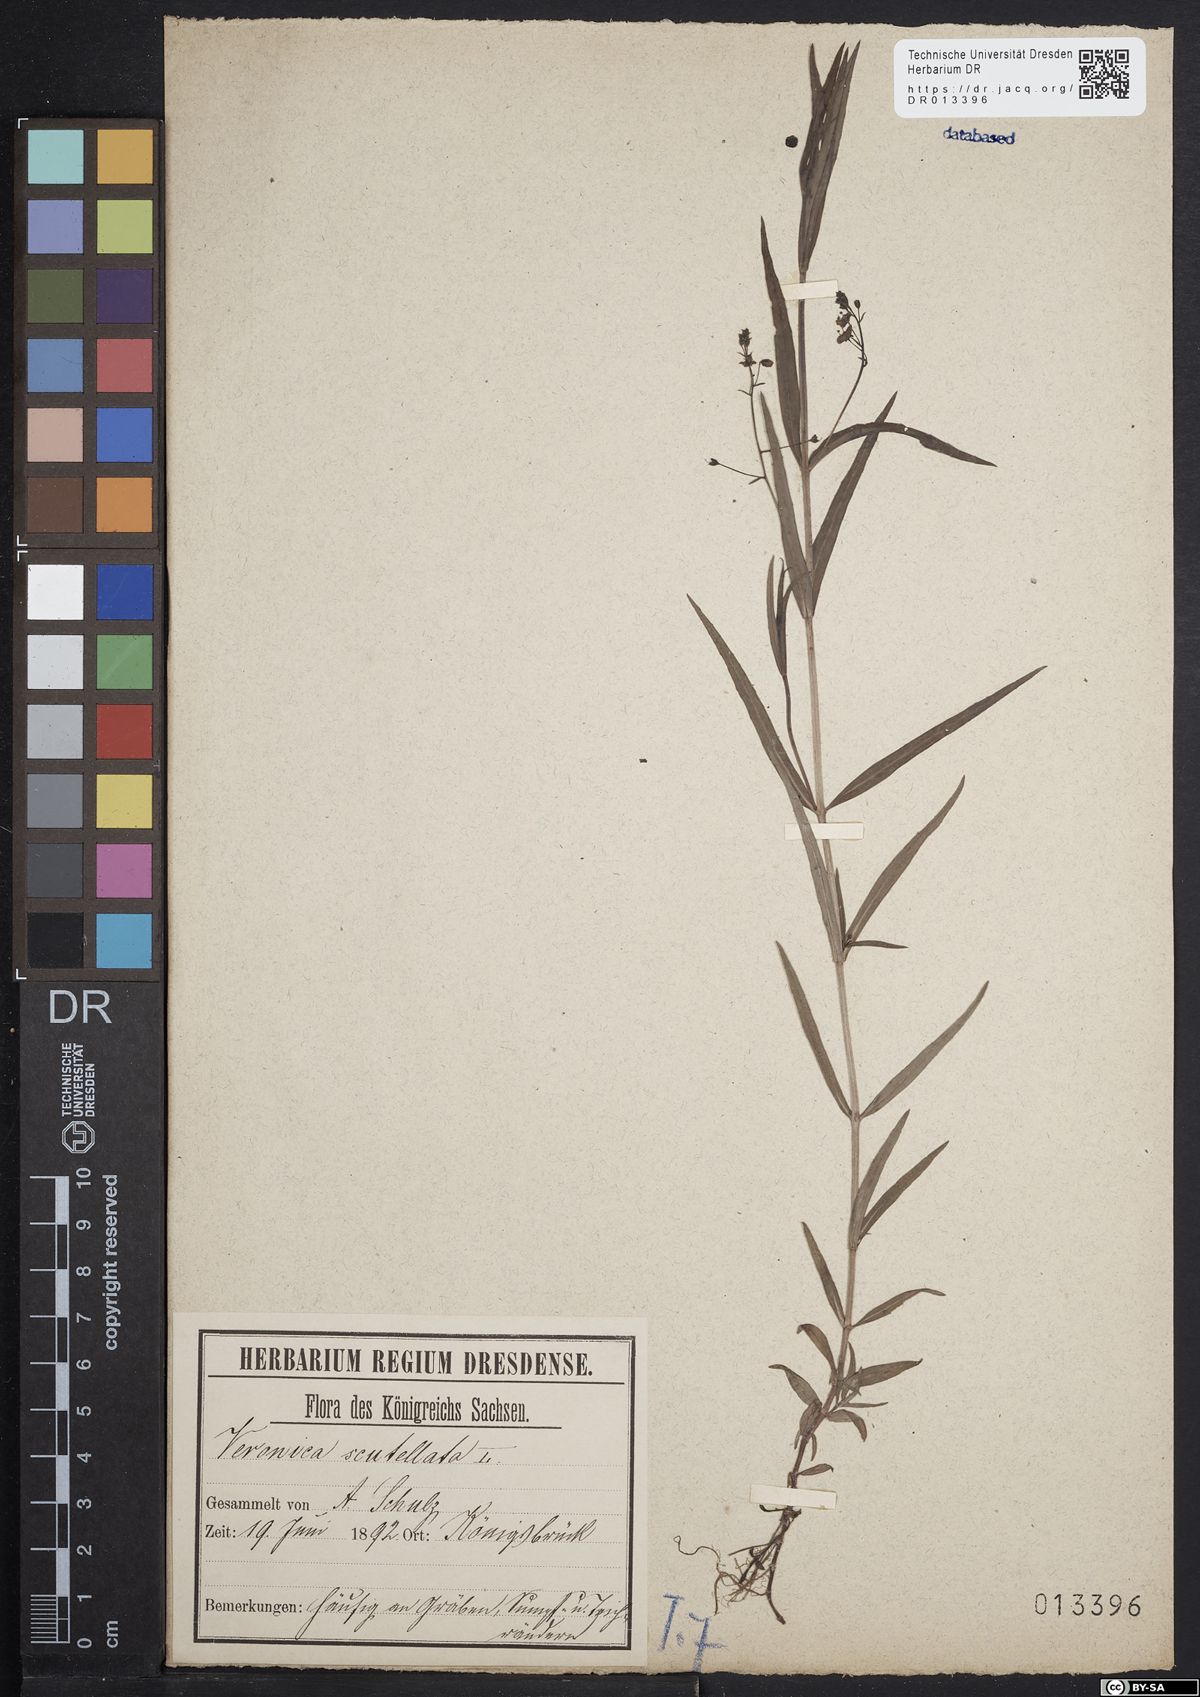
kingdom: Plantae
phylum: Tracheophyta
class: Magnoliopsida
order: Lamiales
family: Plantaginaceae
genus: Veronica
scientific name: Veronica scutellata
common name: Marsh speedwell
